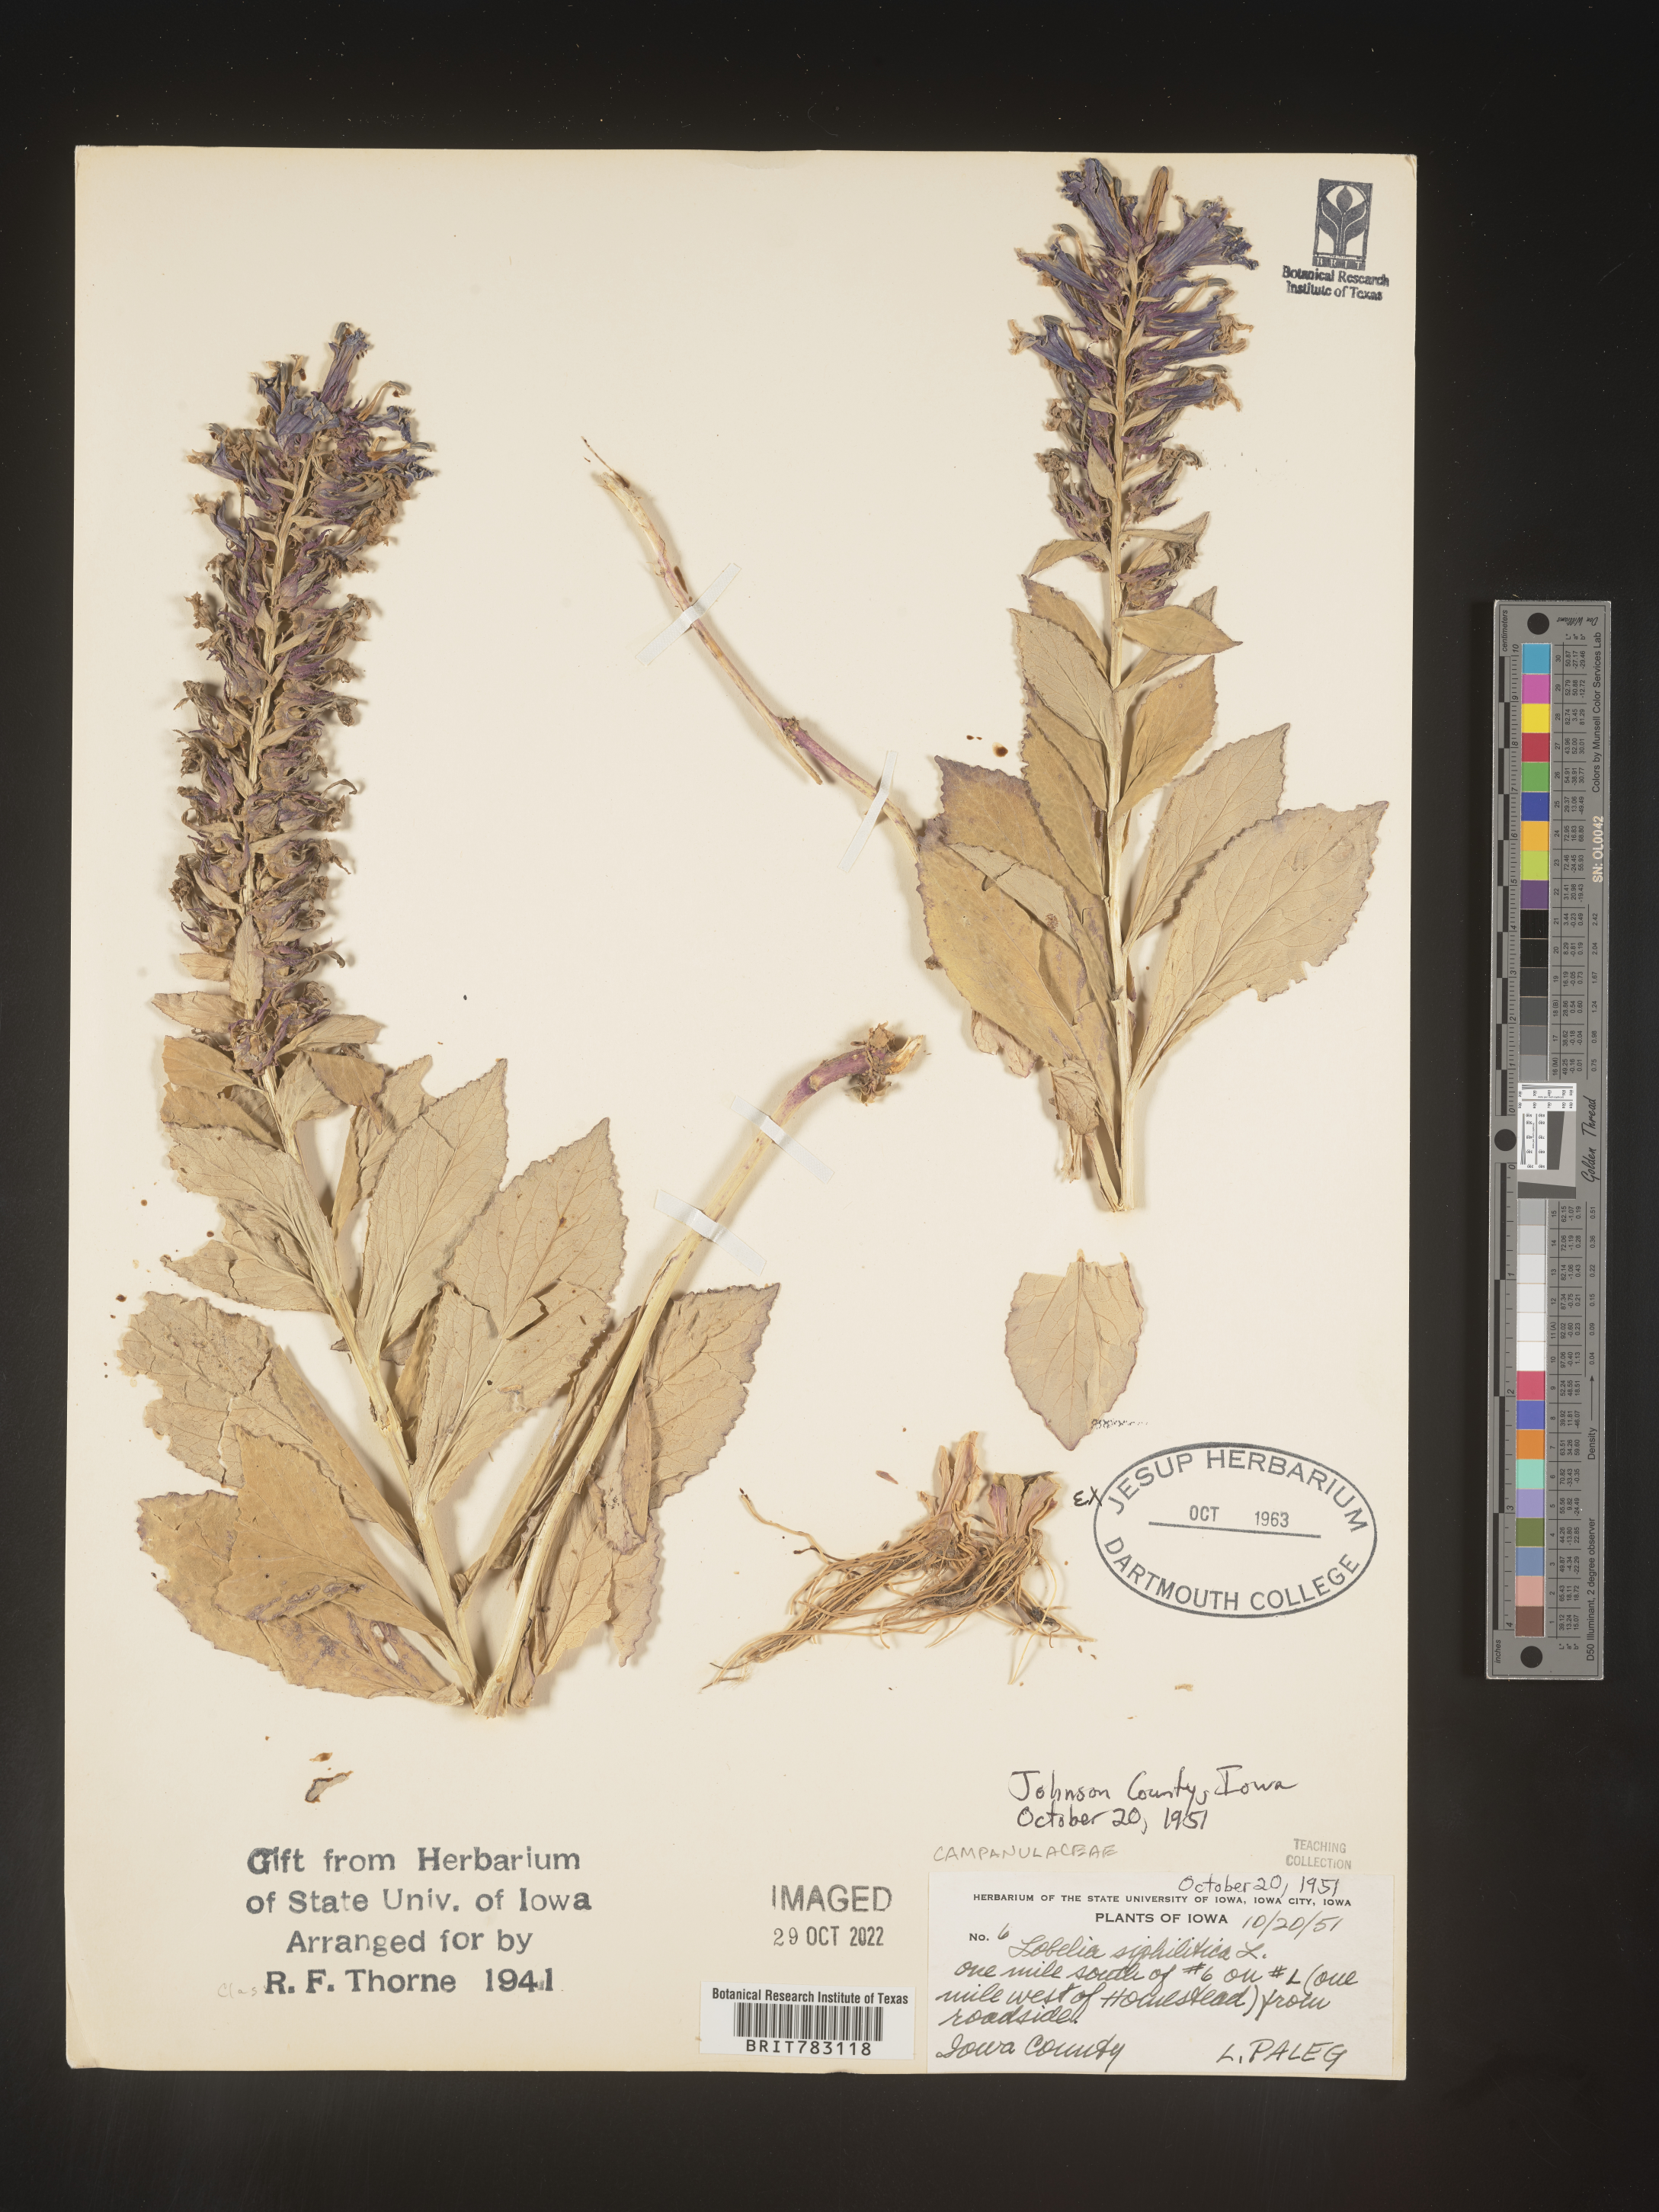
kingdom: Plantae
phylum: Tracheophyta
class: Magnoliopsida
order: Asterales
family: Campanulaceae
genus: Lobelia
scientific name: Lobelia siphilitica
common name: Great lobelia
